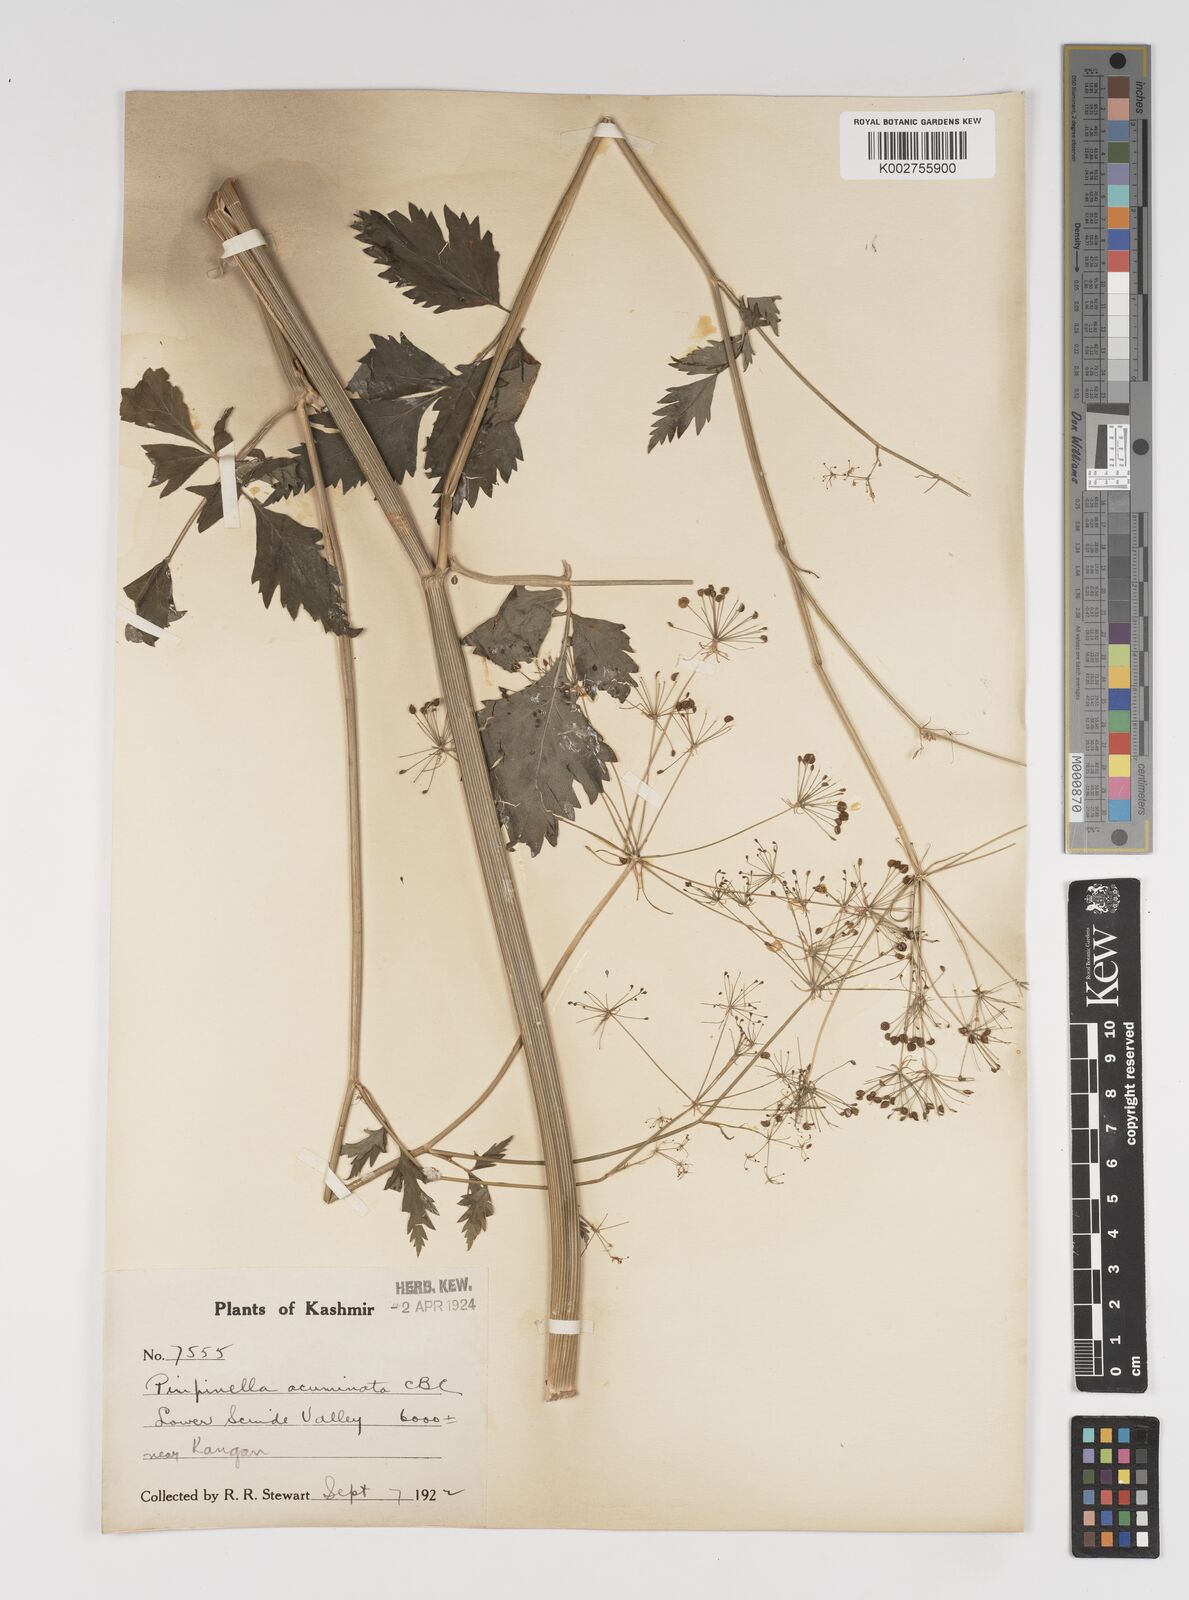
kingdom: Plantae
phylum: Tracheophyta
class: Magnoliopsida
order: Apiales
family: Apiaceae
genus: Pimpinella
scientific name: Pimpinella acuminata
